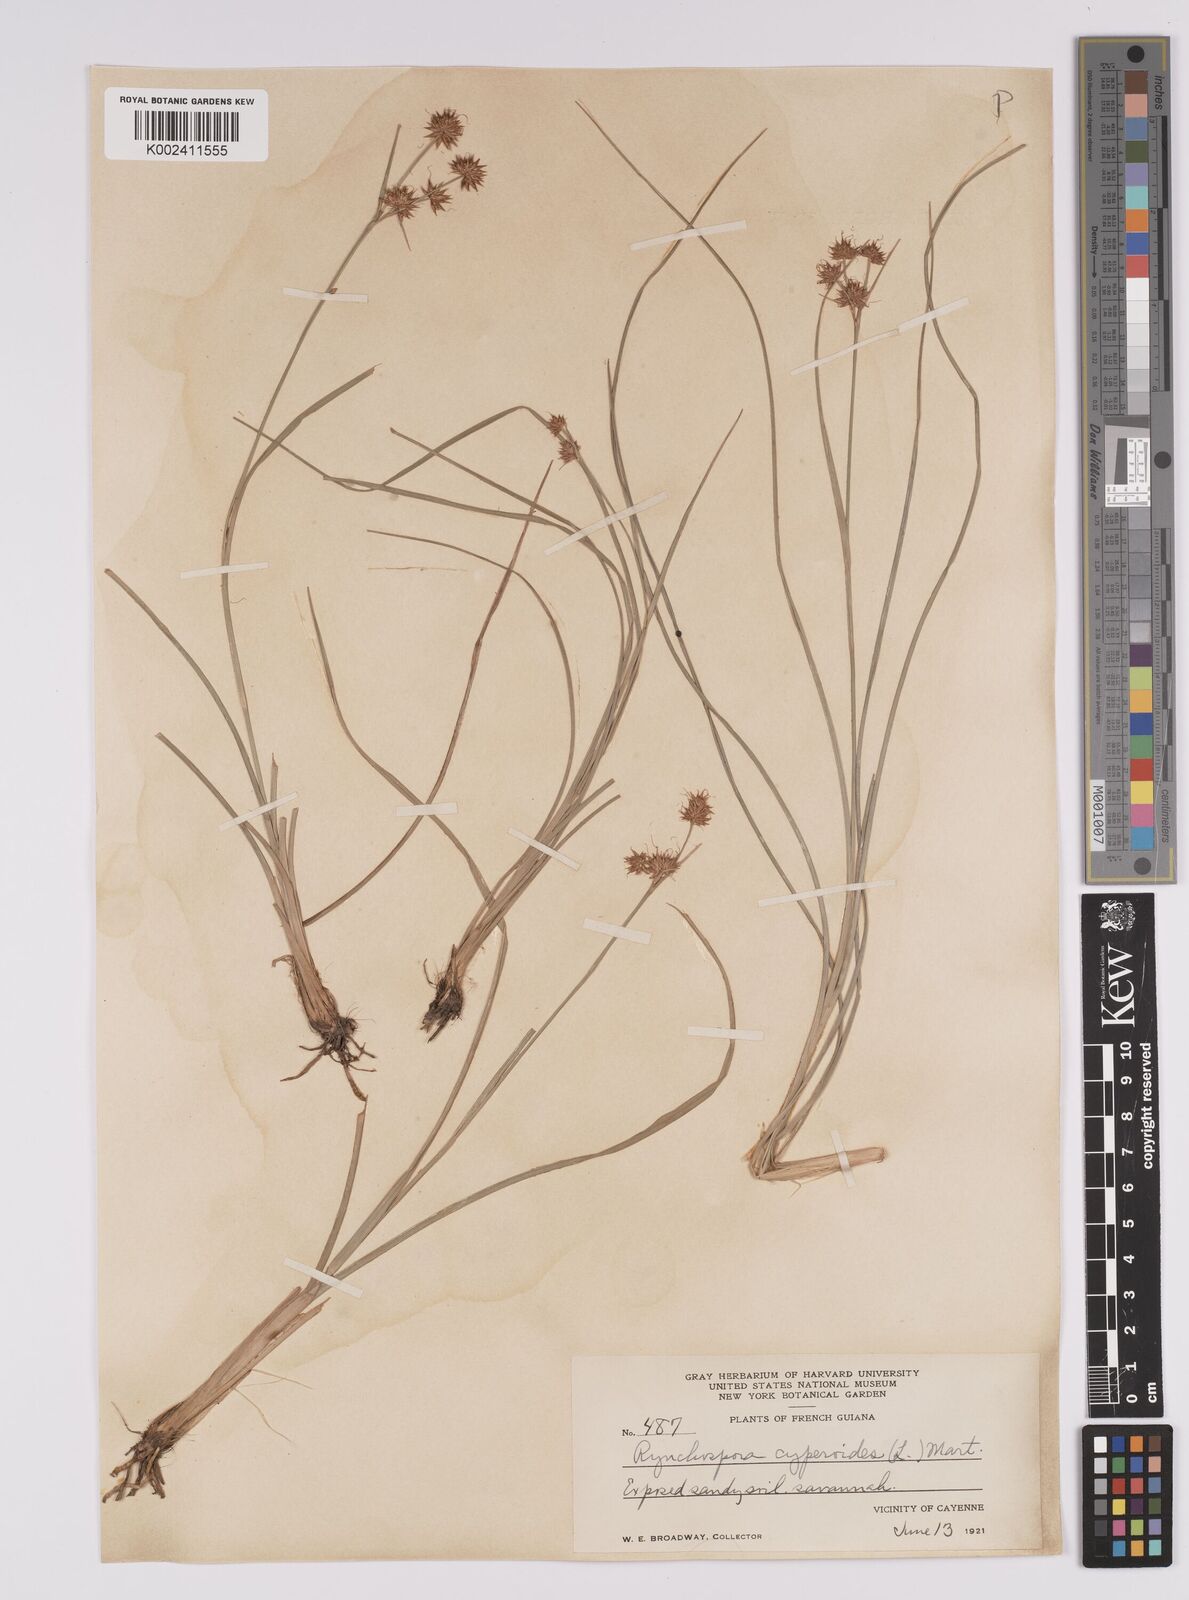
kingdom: Plantae
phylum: Tracheophyta
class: Liliopsida
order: Poales
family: Cyperaceae
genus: Rhynchospora
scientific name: Rhynchospora holoschoenoides
